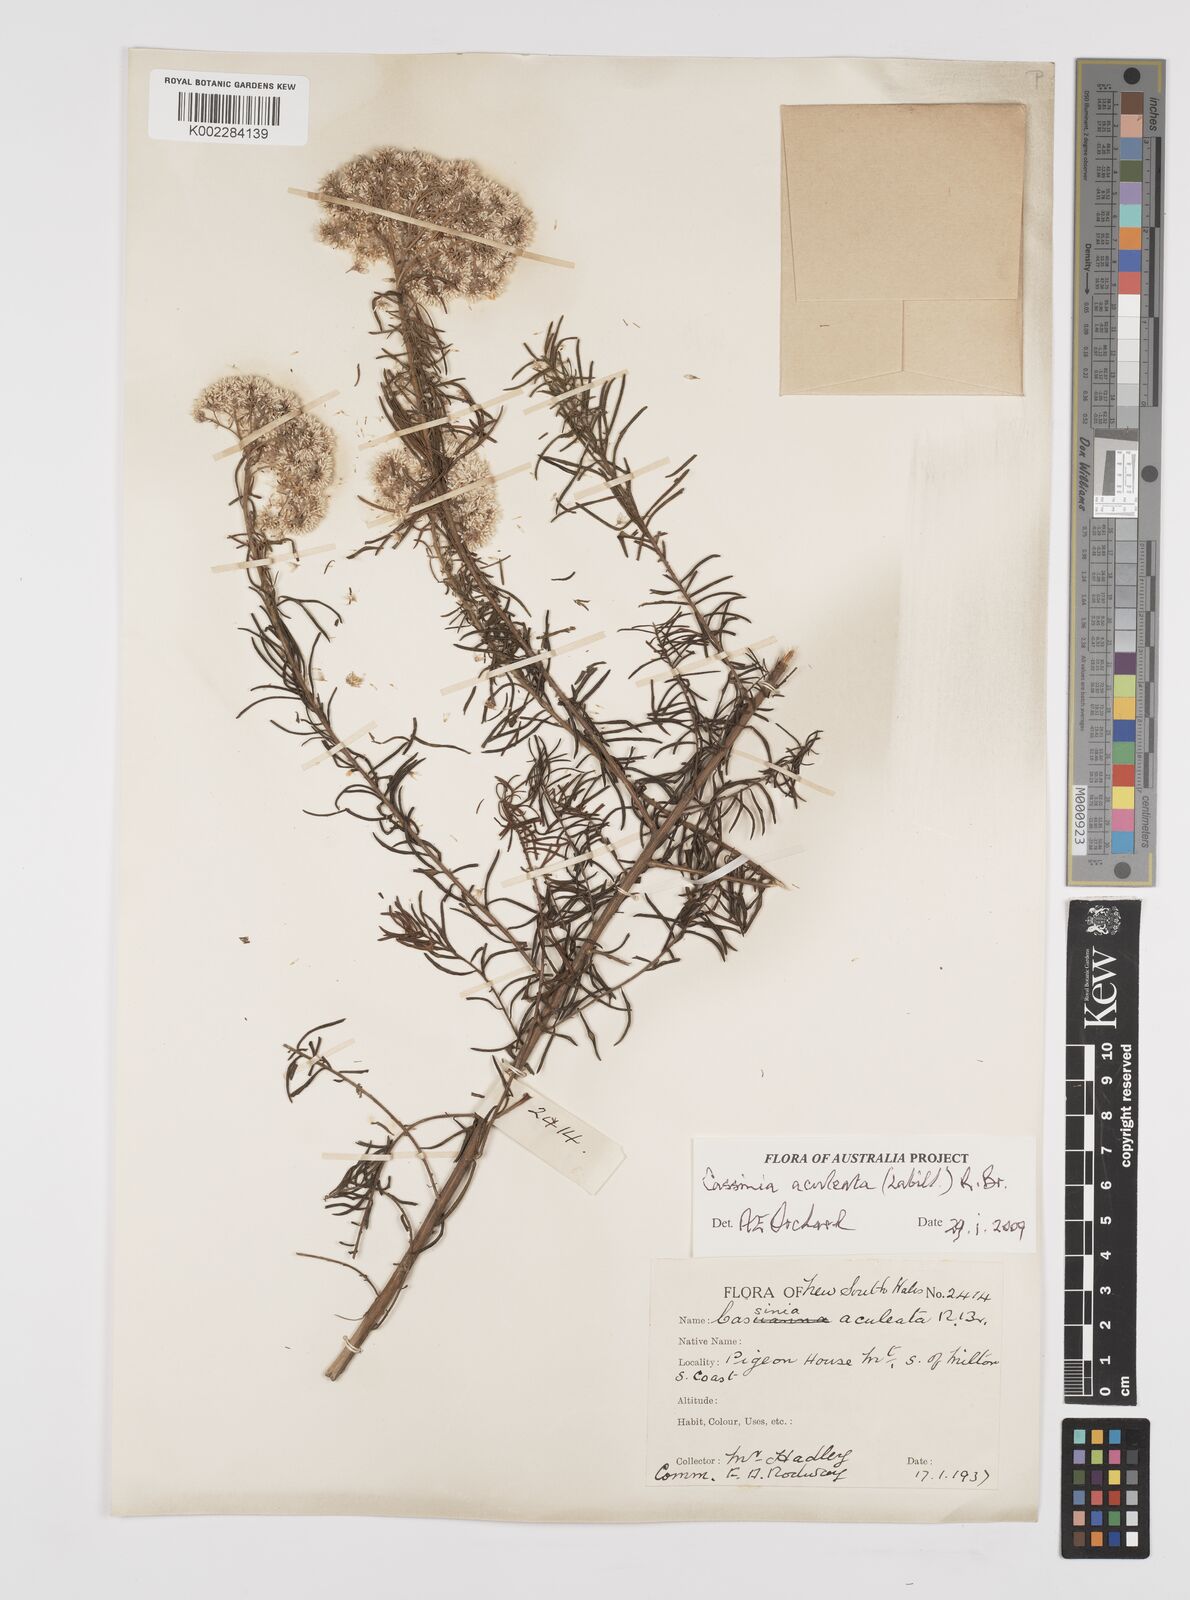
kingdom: Plantae
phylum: Tracheophyta
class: Magnoliopsida
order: Asterales
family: Asteraceae
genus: Cassinia
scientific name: Cassinia aculeata
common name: Australian tauhinu
